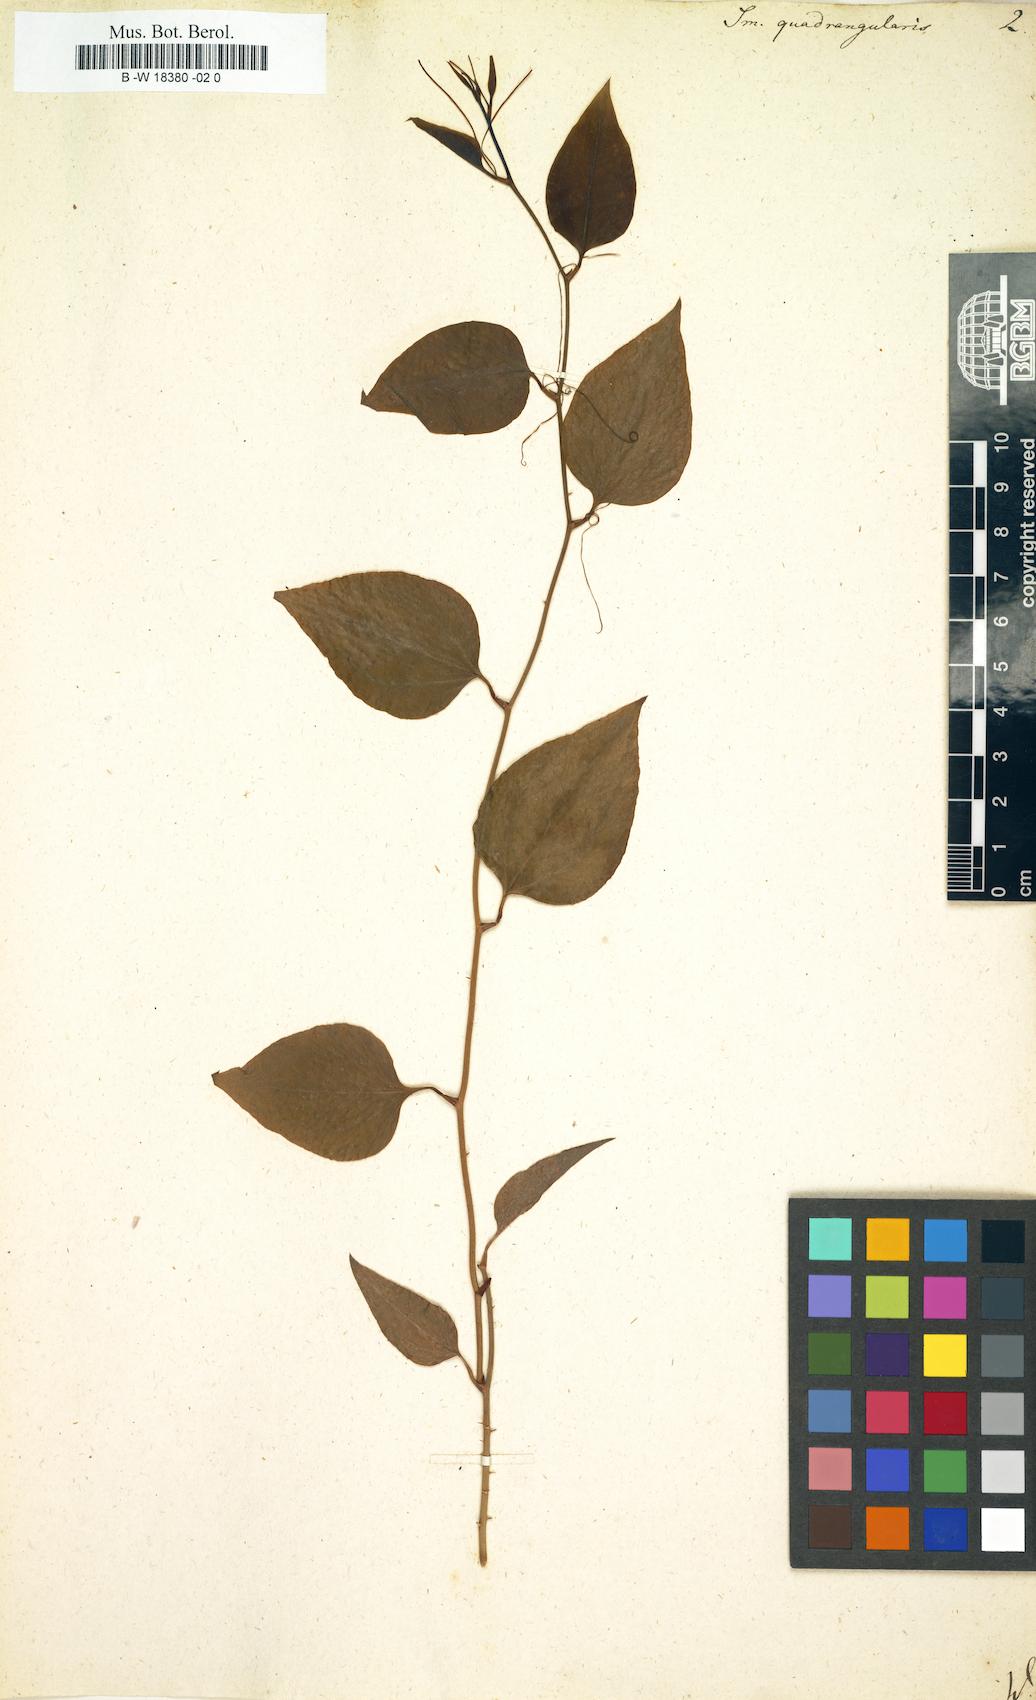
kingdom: Plantae
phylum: Tracheophyta
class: Liliopsida
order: Liliales
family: Smilacaceae
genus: Smilax
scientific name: Smilax rotundifolia
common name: Bullbriar
